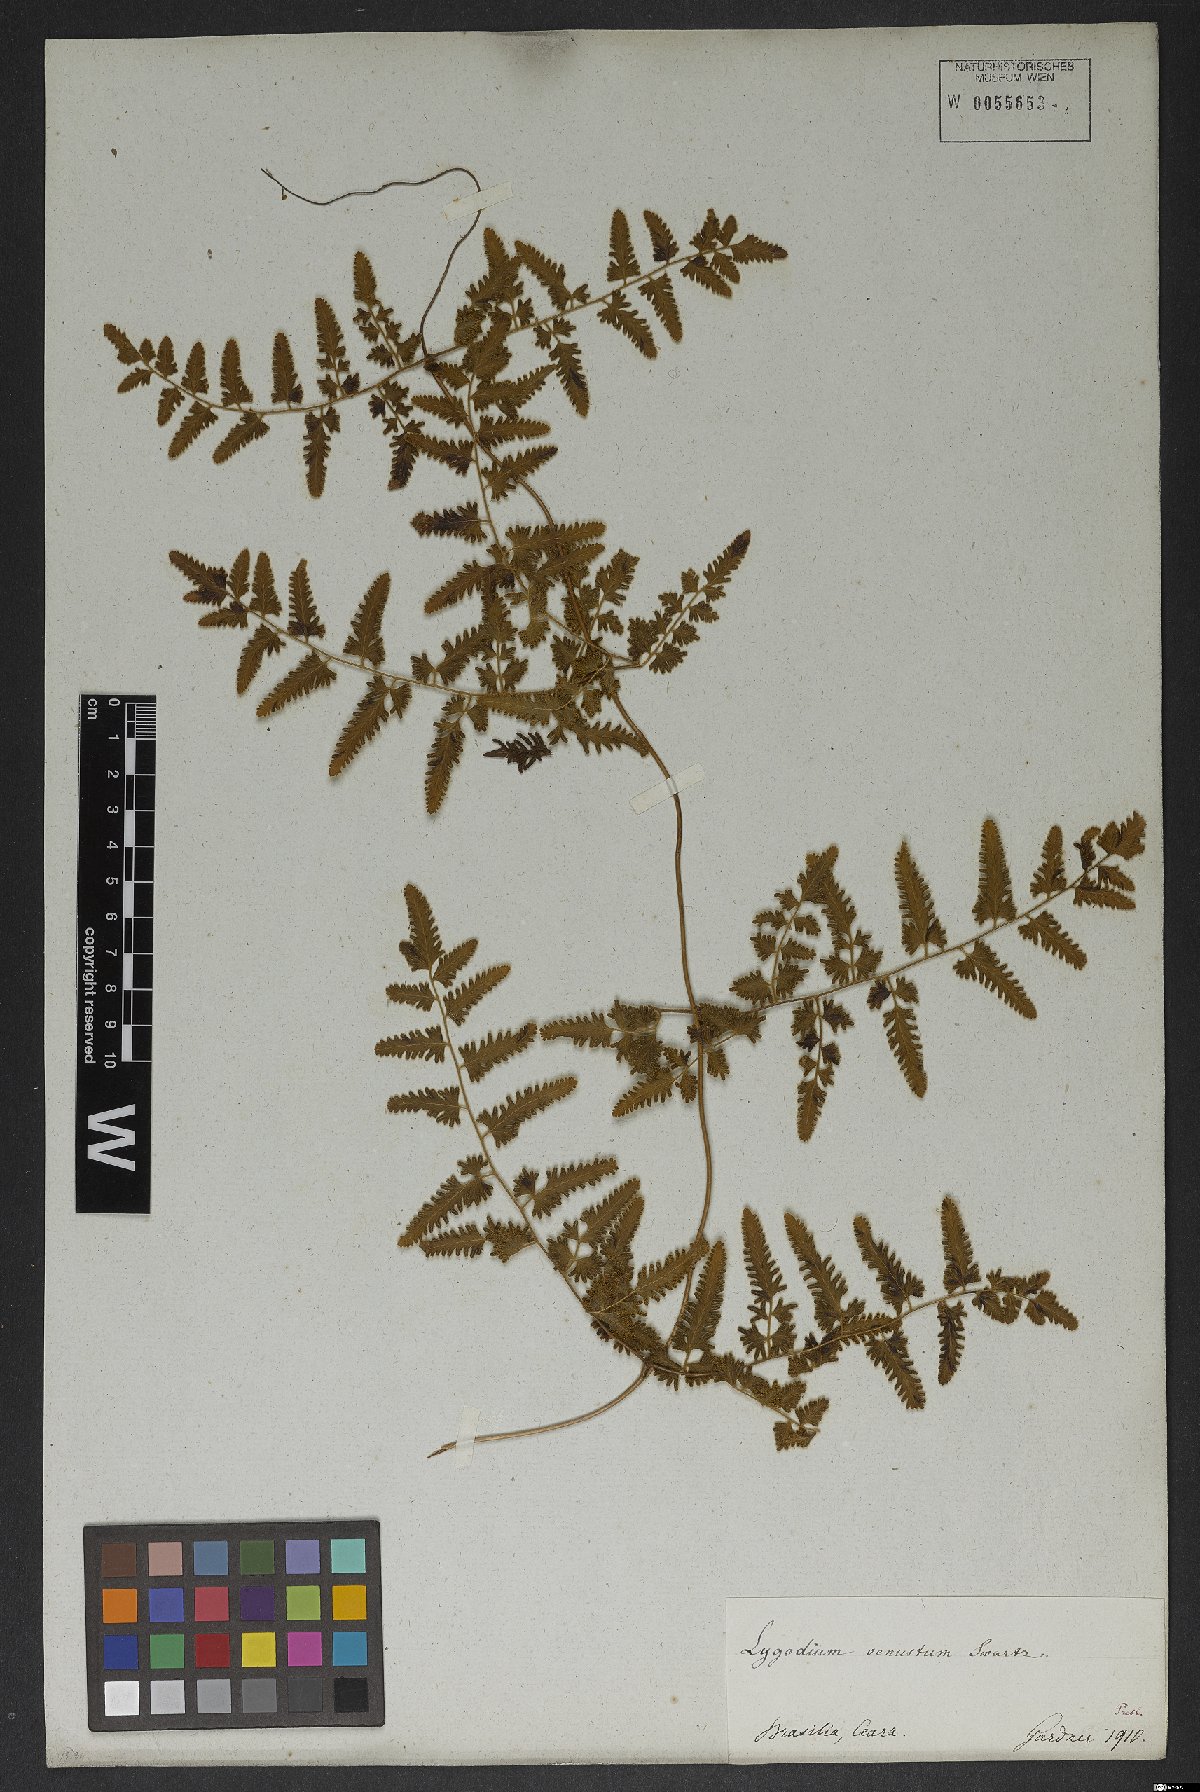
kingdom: Plantae
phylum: Tracheophyta
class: Polypodiopsida
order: Schizaeales
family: Lygodiaceae
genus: Lygodium
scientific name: Lygodium venustum
